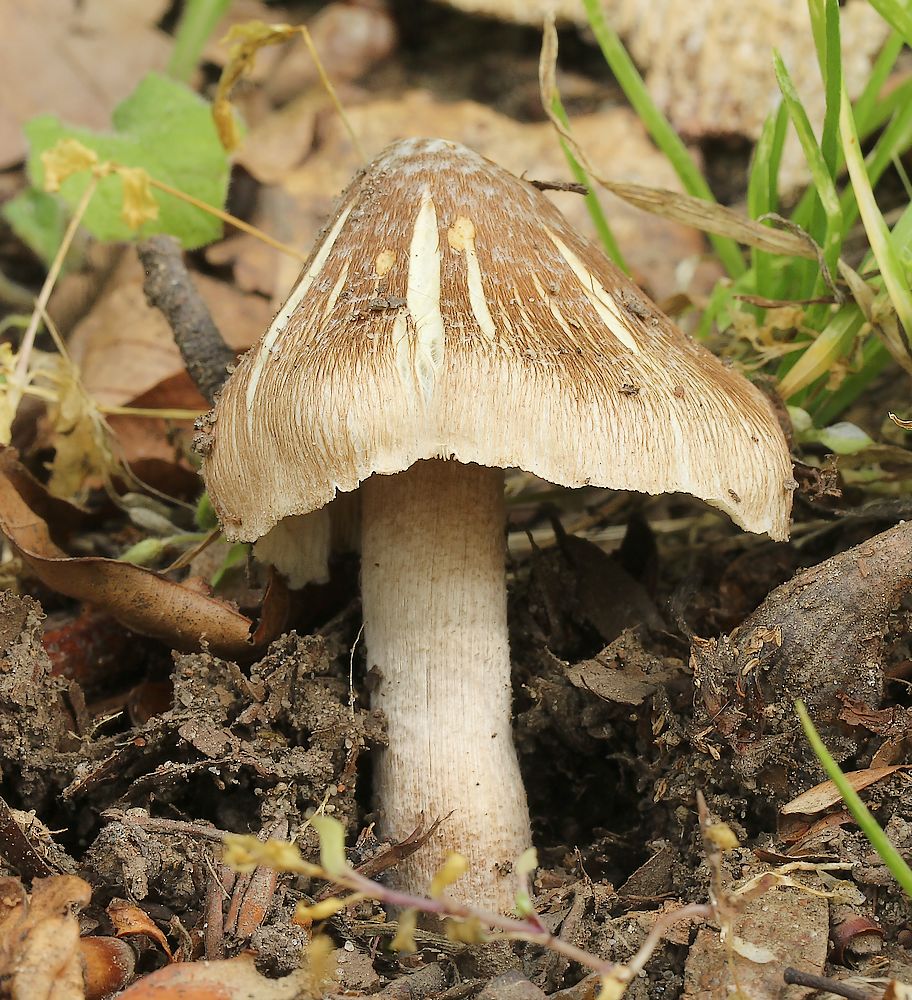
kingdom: Fungi
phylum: Basidiomycota
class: Agaricomycetes
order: Agaricales
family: Inocybaceae
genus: Inosperma
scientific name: Inosperma
